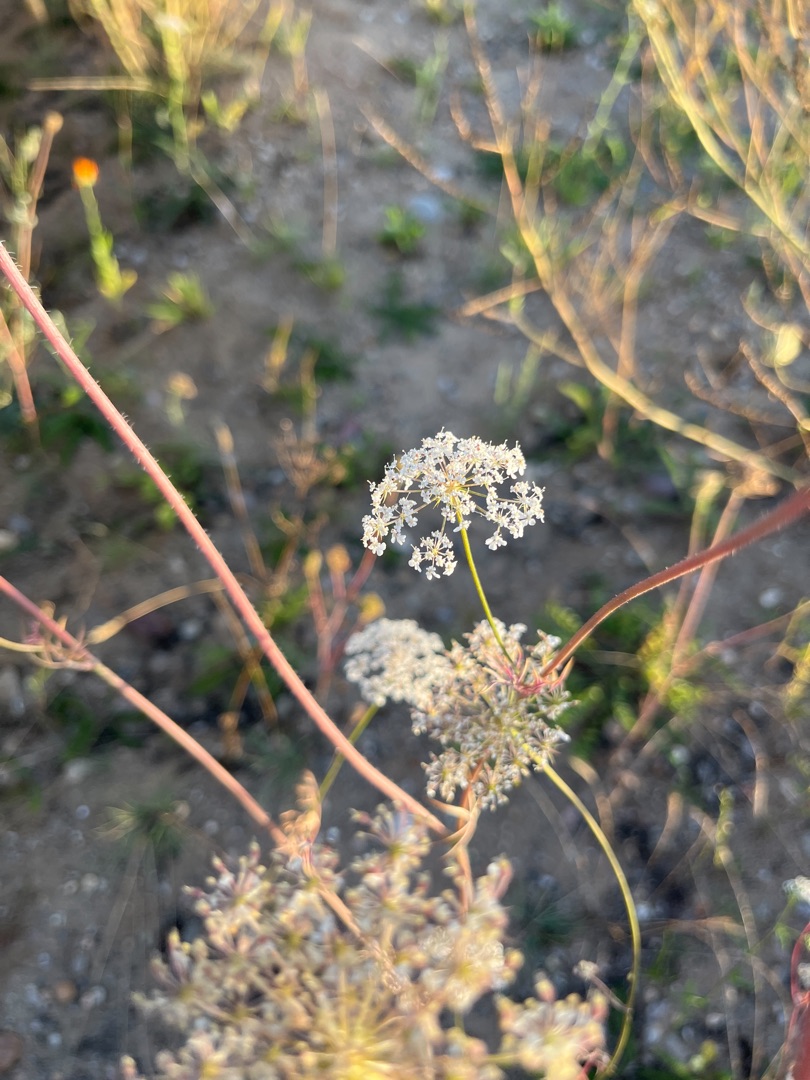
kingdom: Plantae
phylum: Tracheophyta
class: Magnoliopsida
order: Apiales
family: Apiaceae
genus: Daucus
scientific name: Daucus carota
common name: Gulerod
